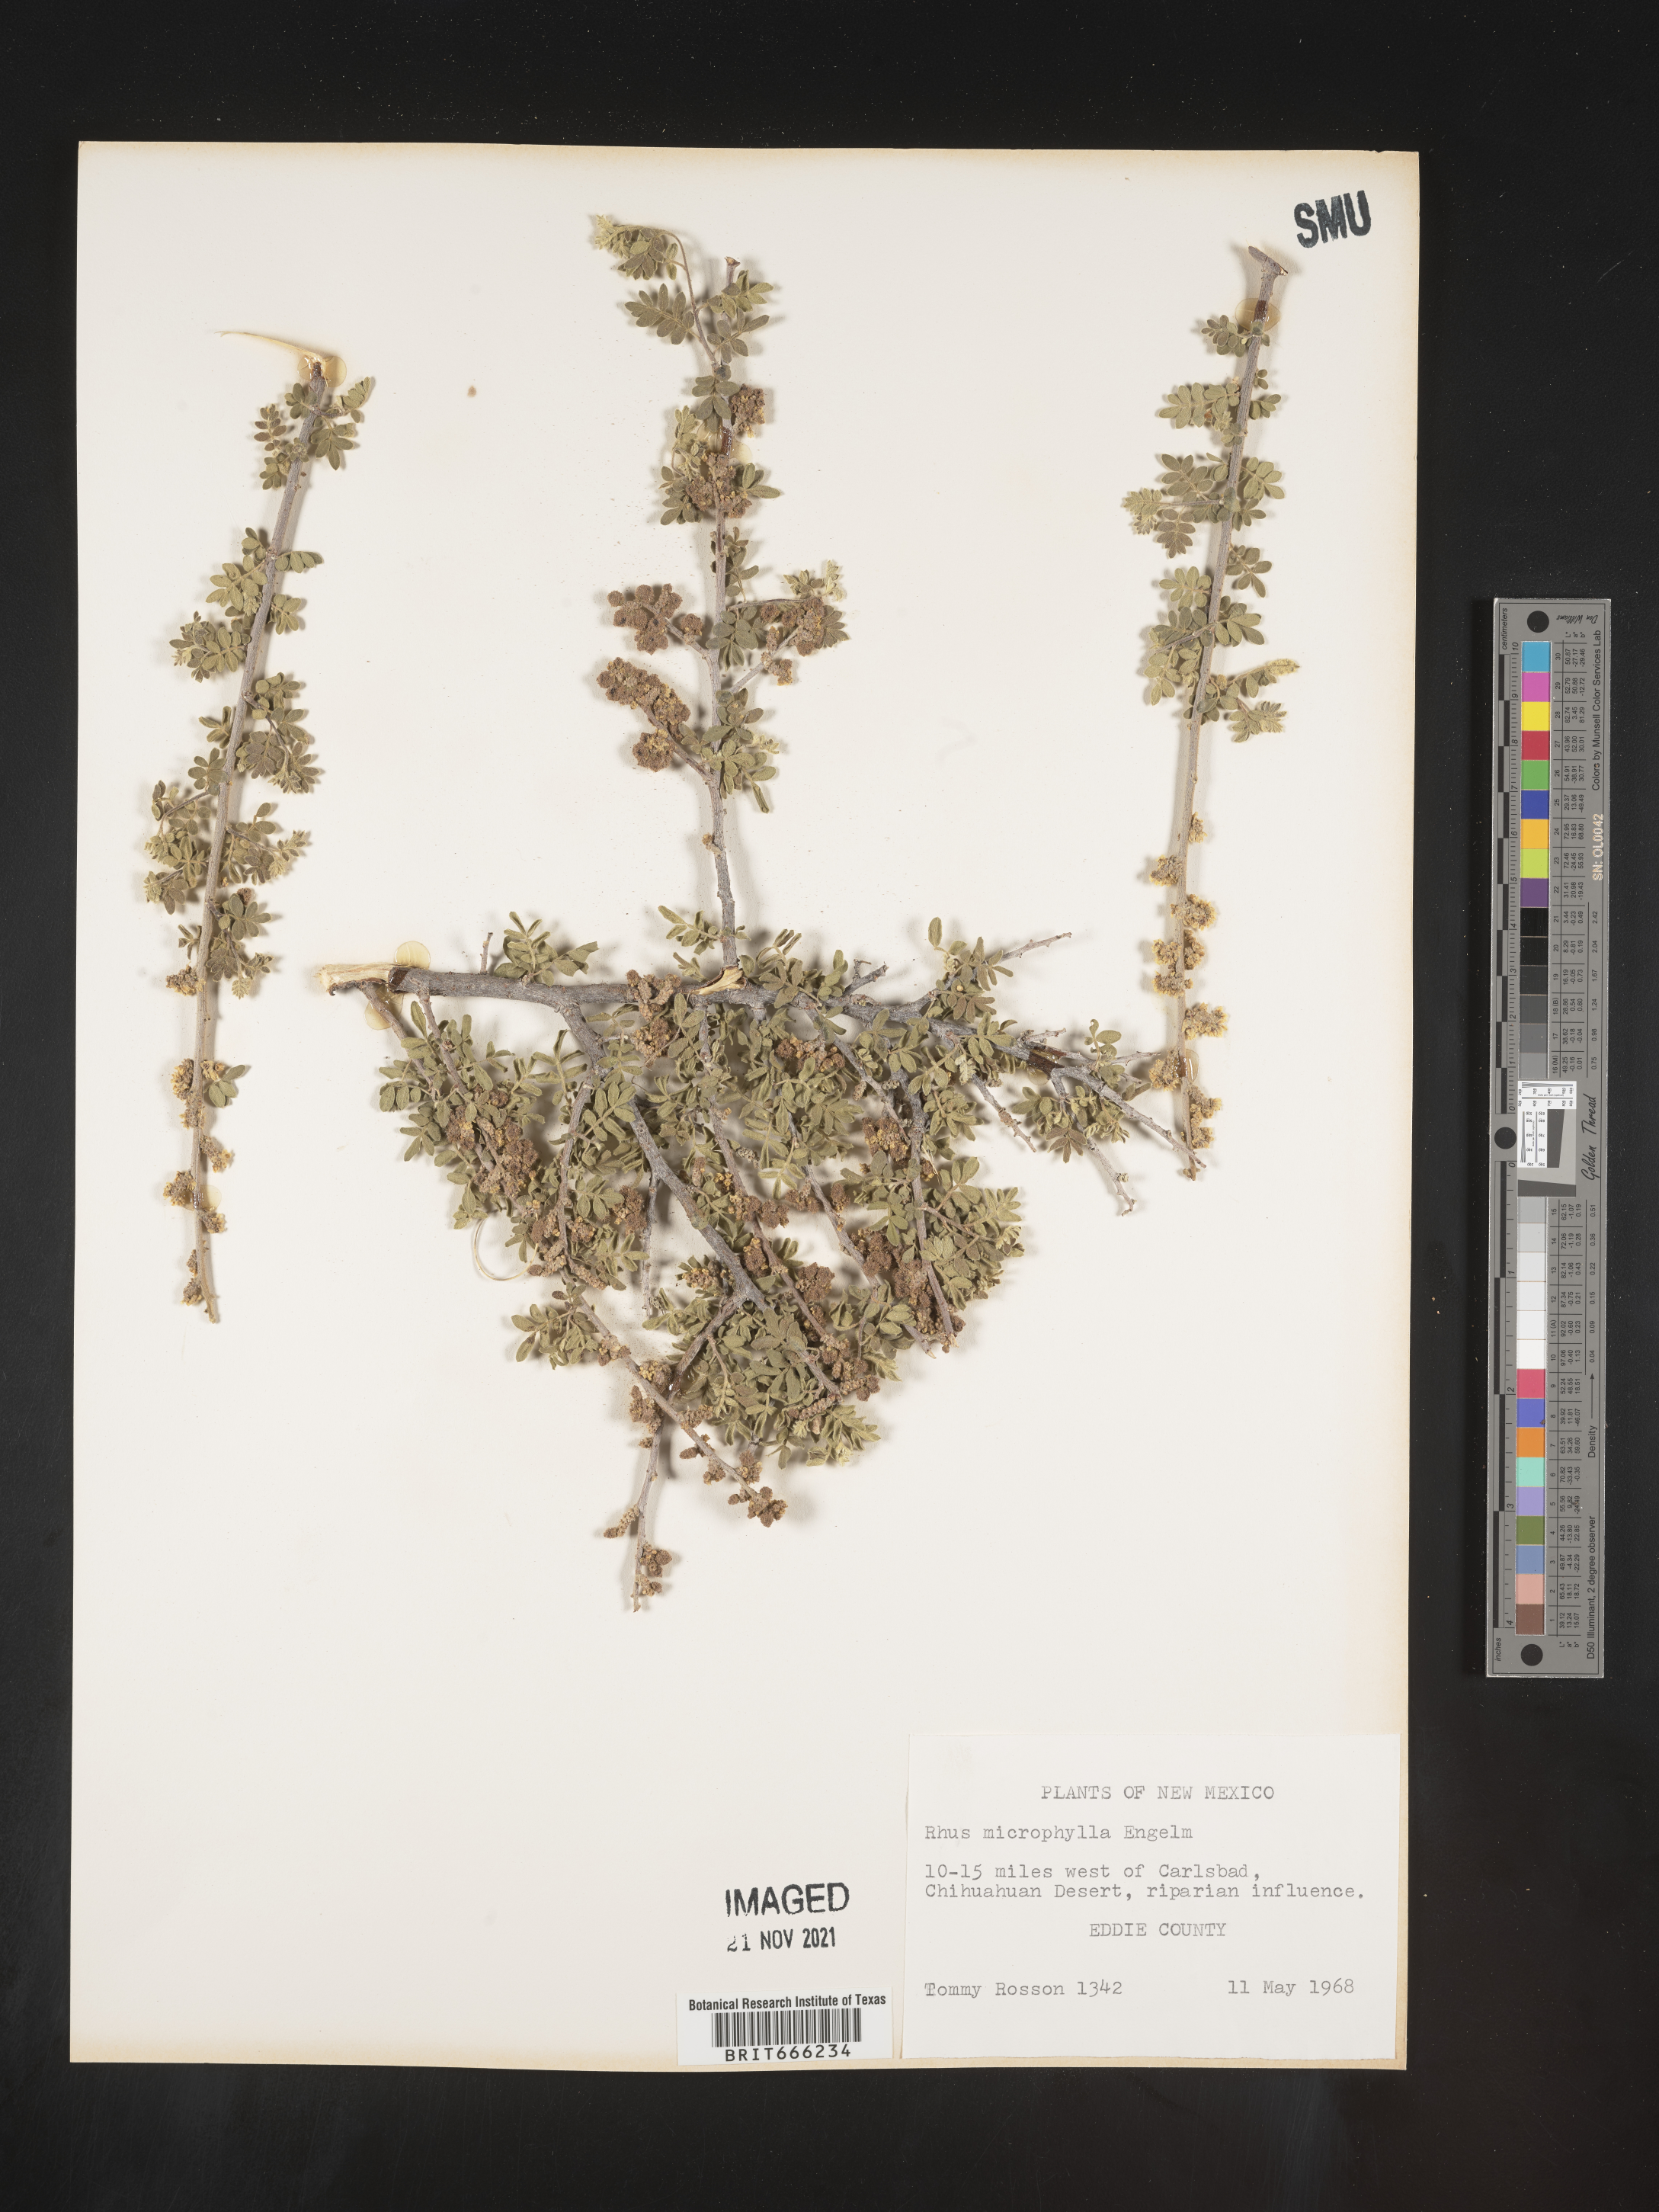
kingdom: Plantae
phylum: Tracheophyta
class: Magnoliopsida
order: Sapindales
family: Anacardiaceae
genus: Rhus
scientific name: Rhus
